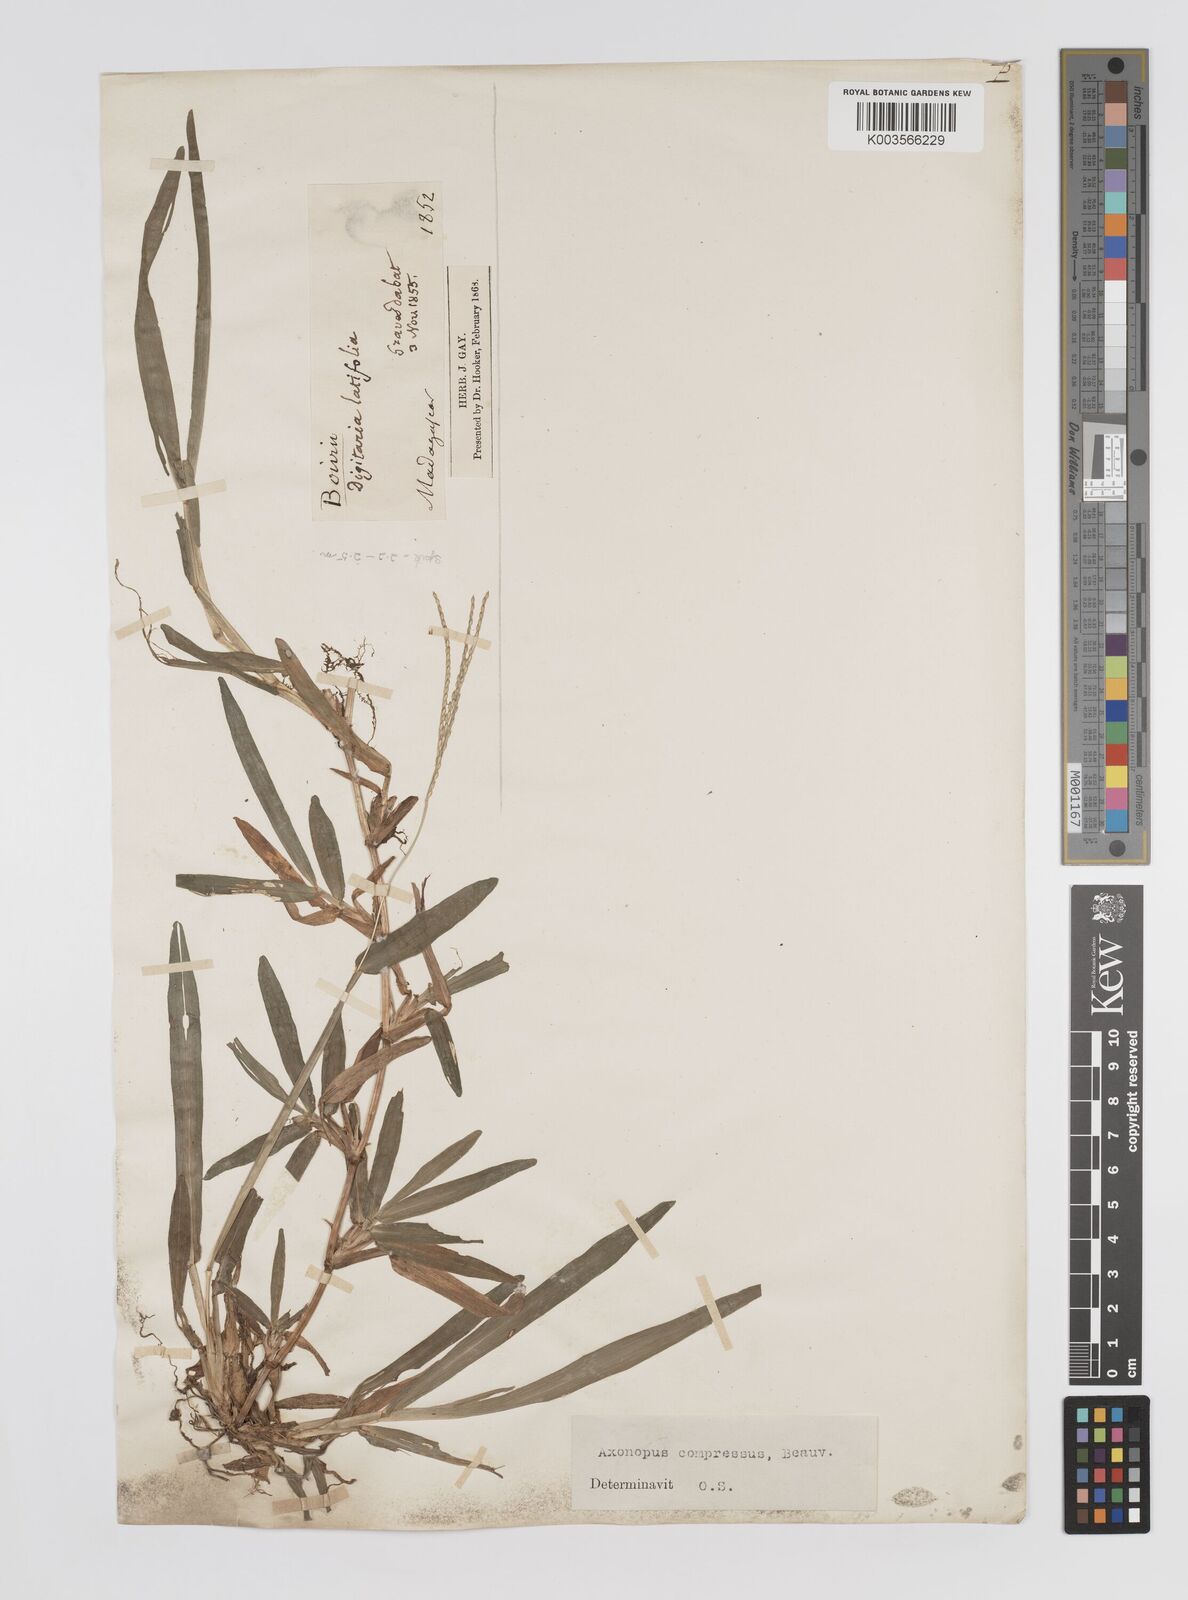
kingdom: Plantae
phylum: Tracheophyta
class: Liliopsida
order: Poales
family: Poaceae
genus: Axonopus
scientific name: Axonopus compressus
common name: American carpet grass
